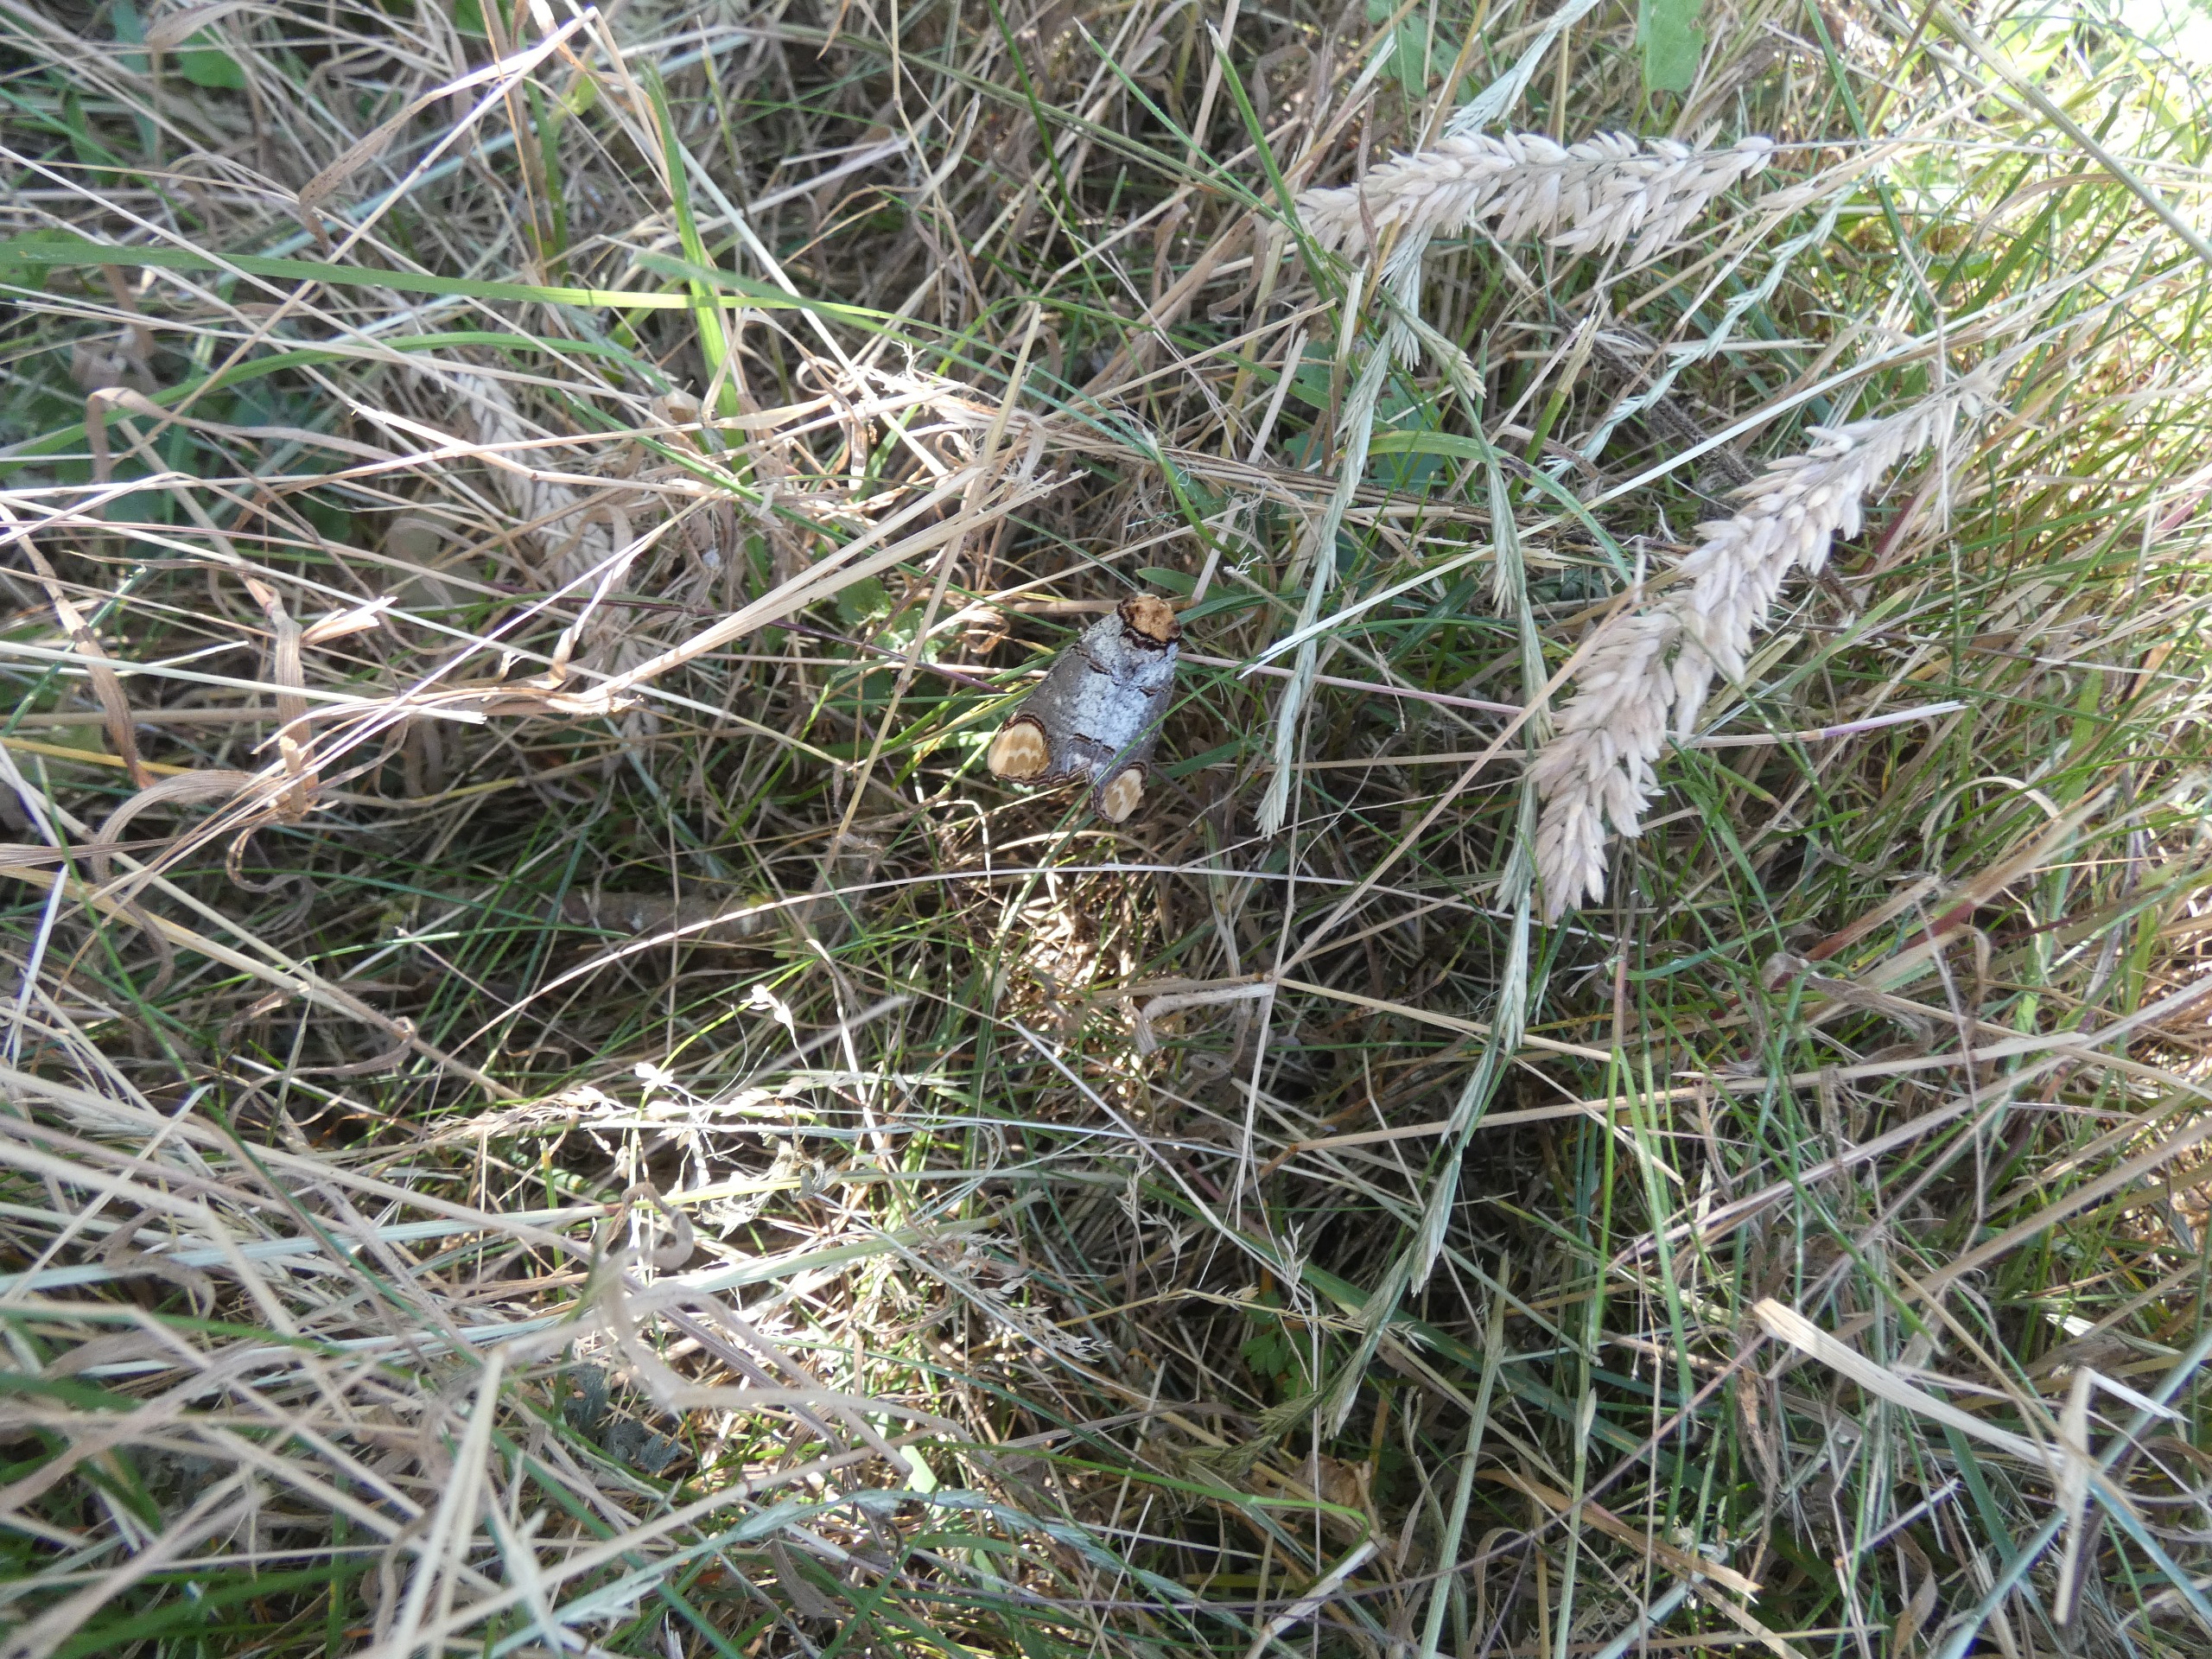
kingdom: Animalia
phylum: Arthropoda
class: Insecta
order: Lepidoptera
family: Notodontidae
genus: Phalera
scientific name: Phalera bucephala
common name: Måneplet
